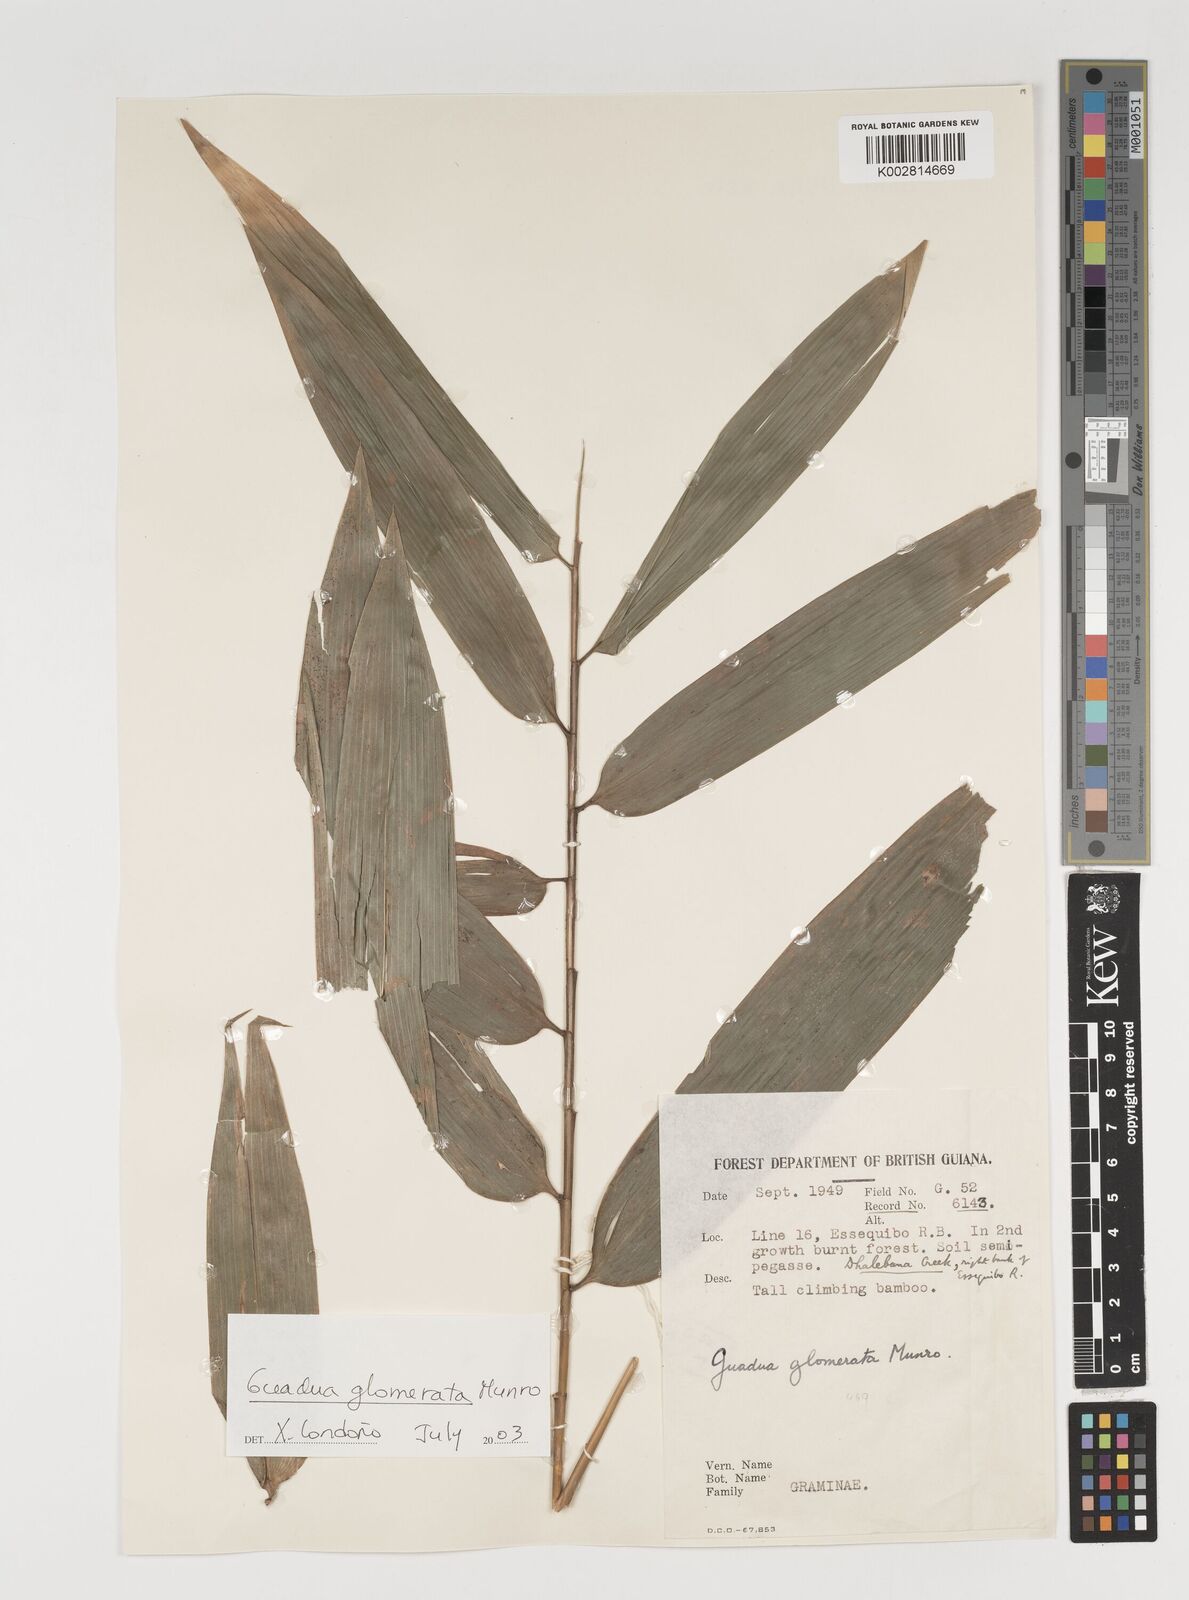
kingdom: Plantae
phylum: Tracheophyta
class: Liliopsida
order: Poales
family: Poaceae
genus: Guadua
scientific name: Guadua glomerata
